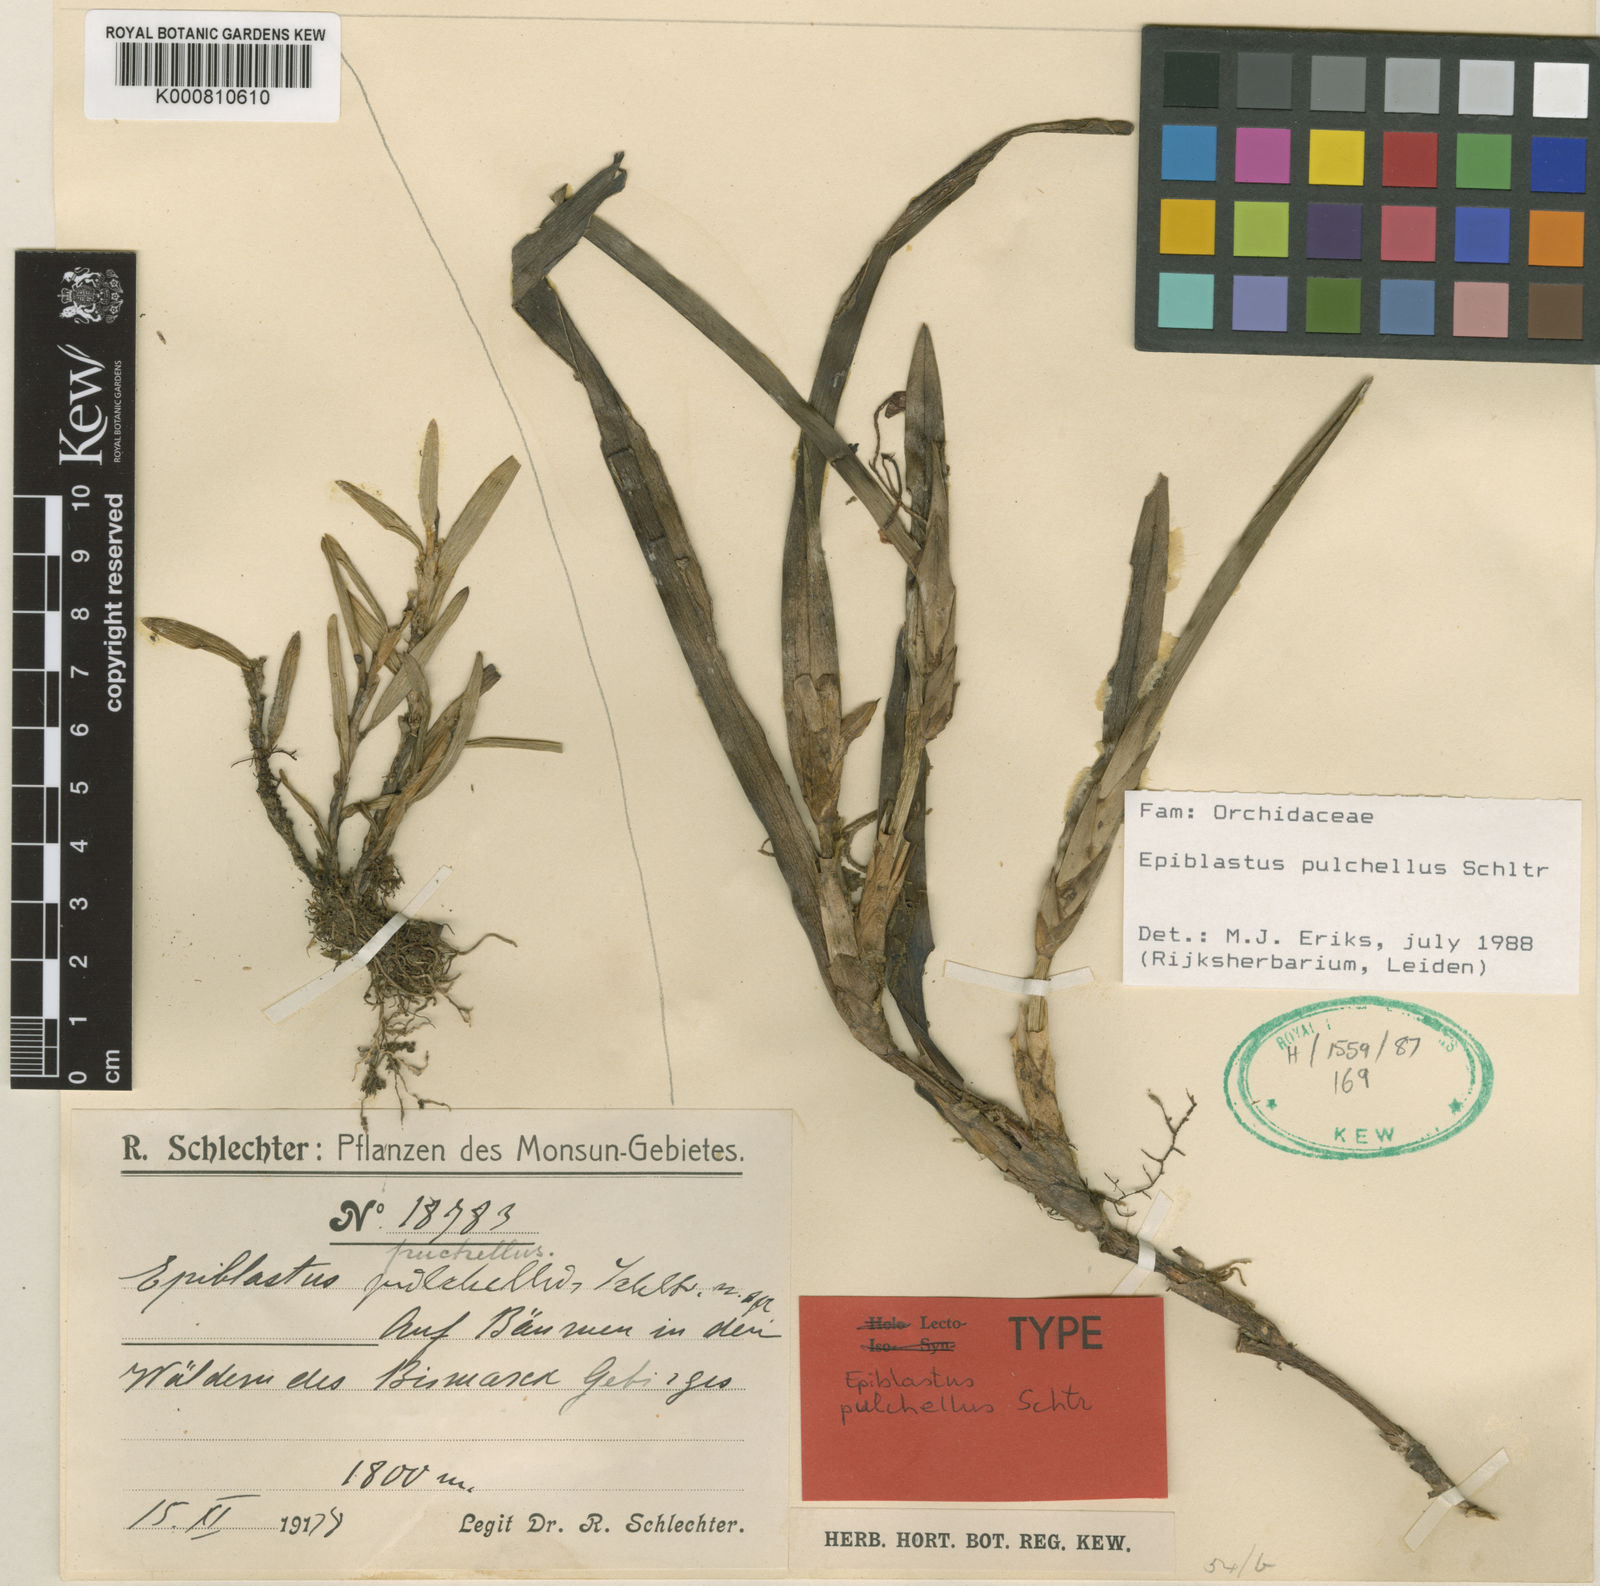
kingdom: Plantae
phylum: Tracheophyta
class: Liliopsida
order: Asparagales
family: Orchidaceae
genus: Epiblastus
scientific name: Epiblastus pulchellus
